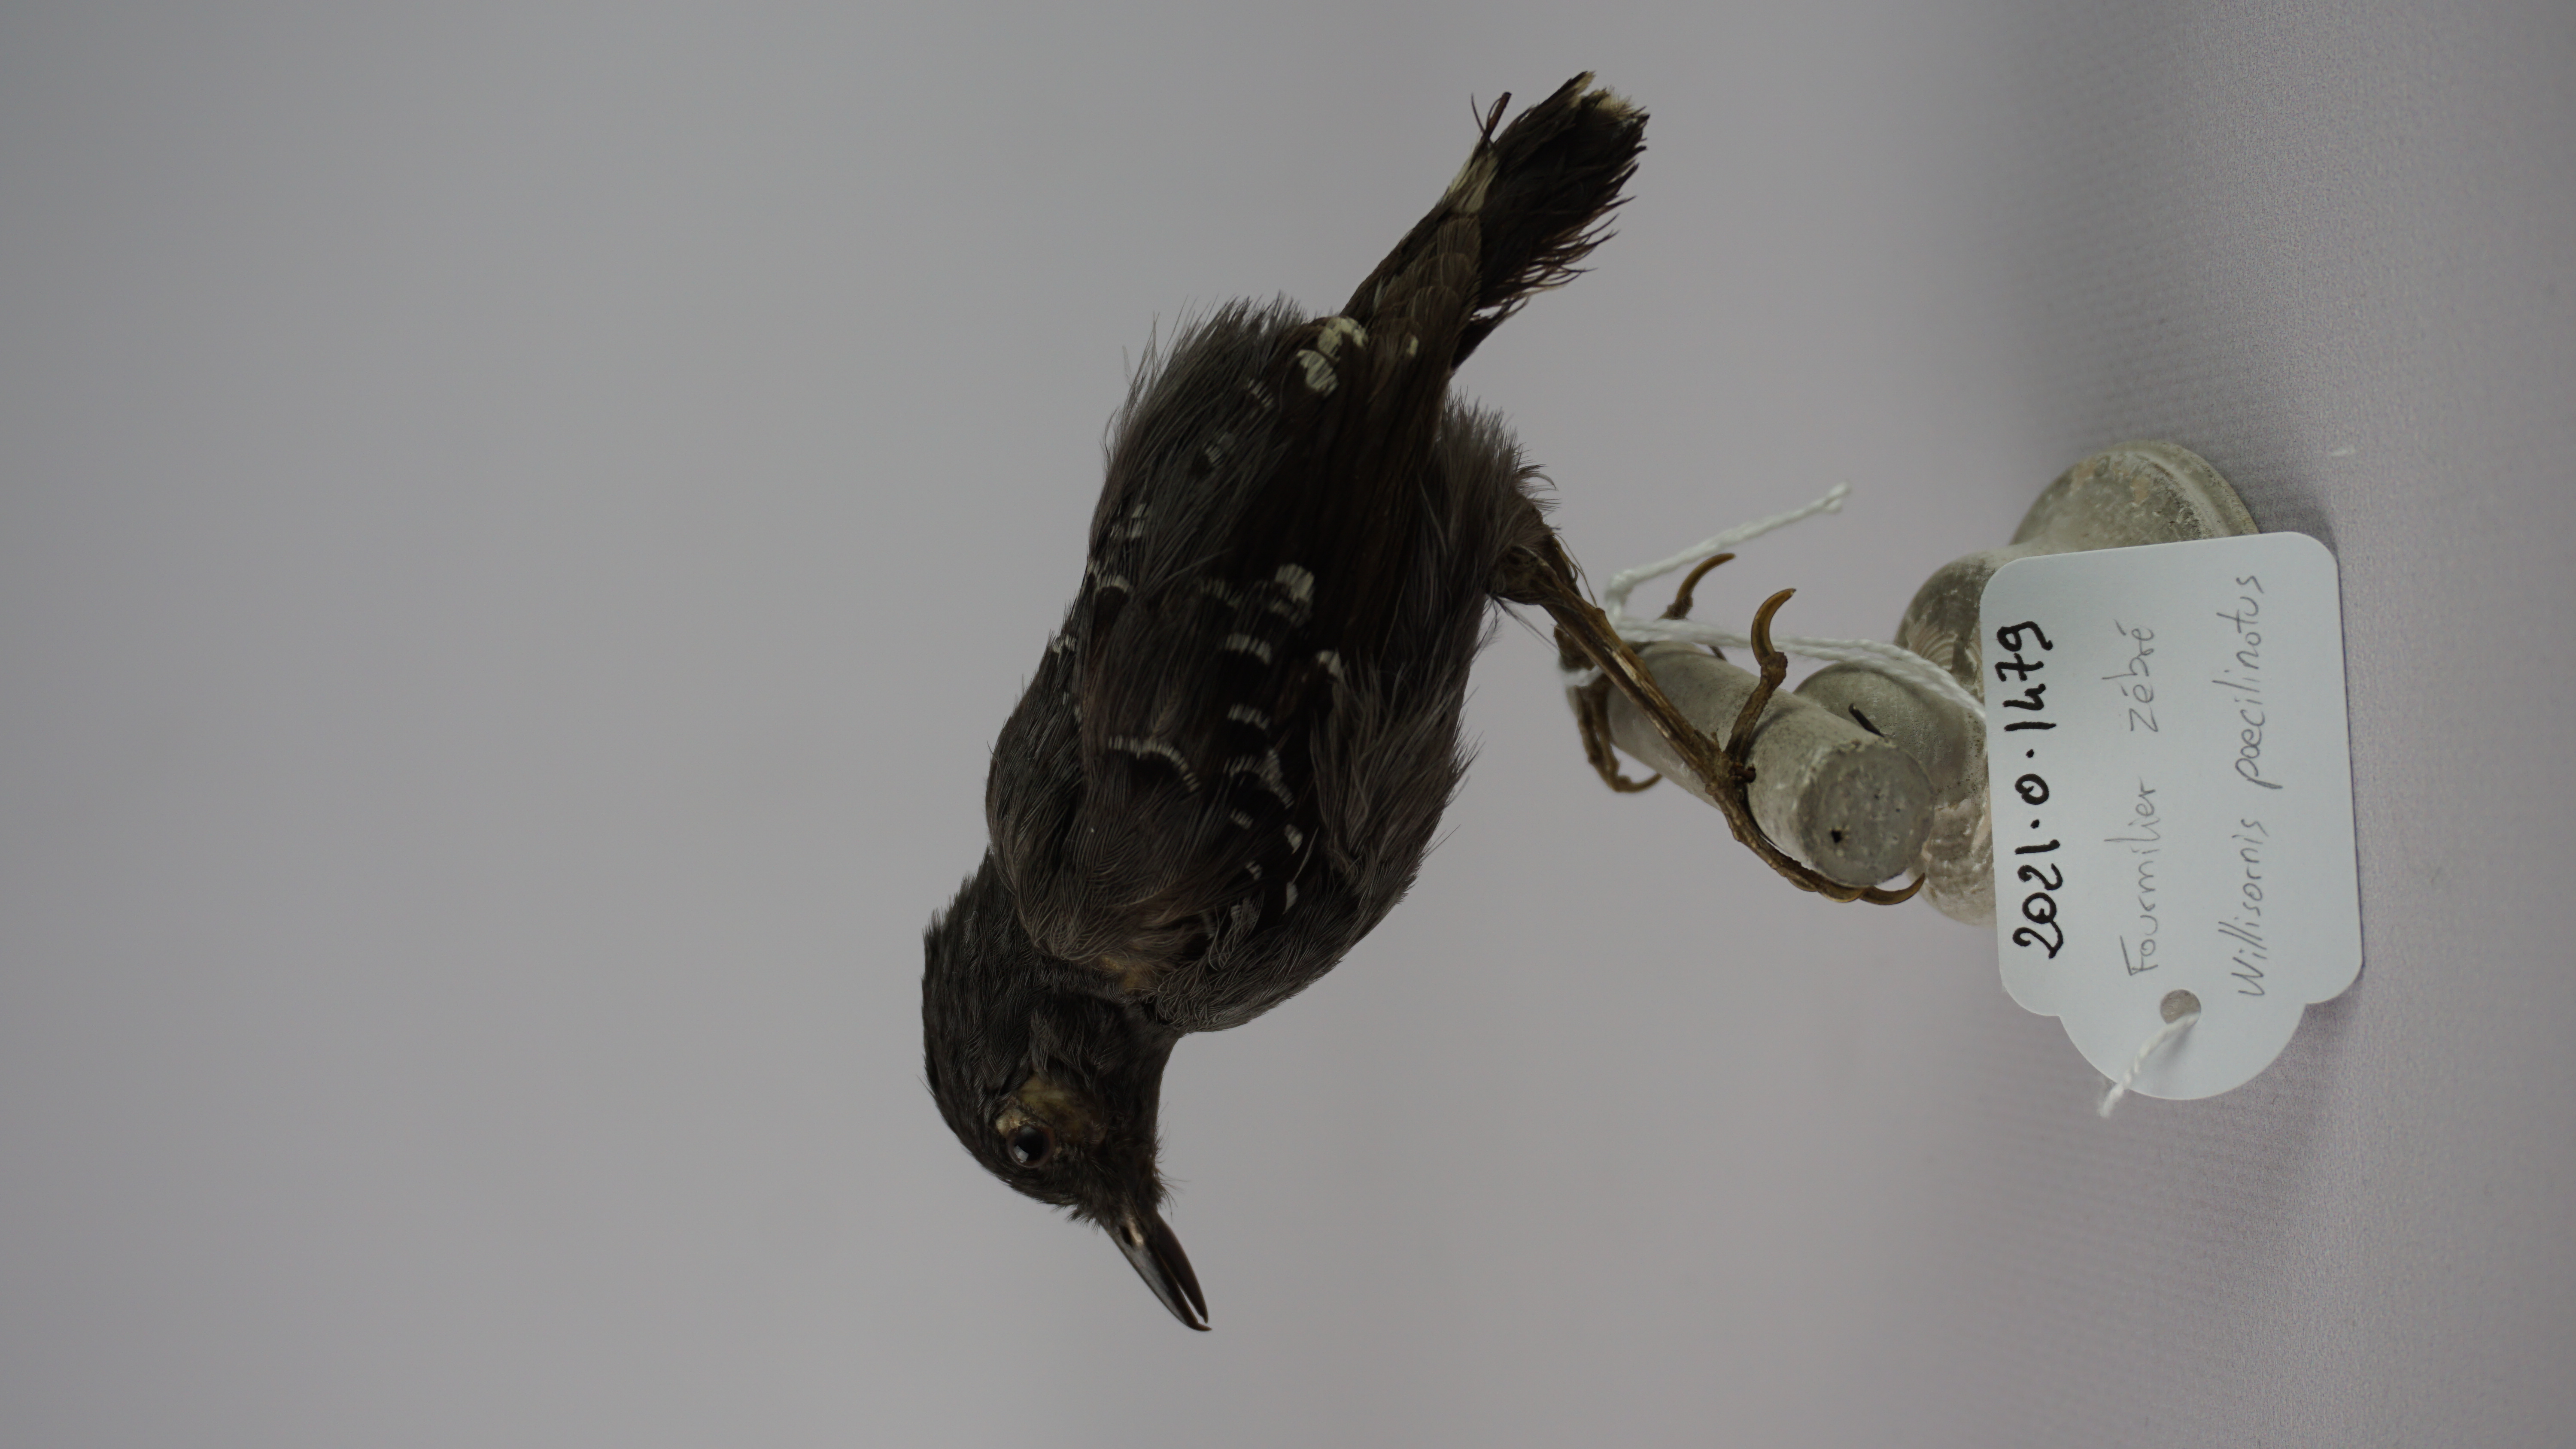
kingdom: Animalia
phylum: Chordata
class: Aves
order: Passeriformes
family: Thamnophilidae
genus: Willisornis
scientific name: Willisornis poecilinotus
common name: Common scale-backed antbird
